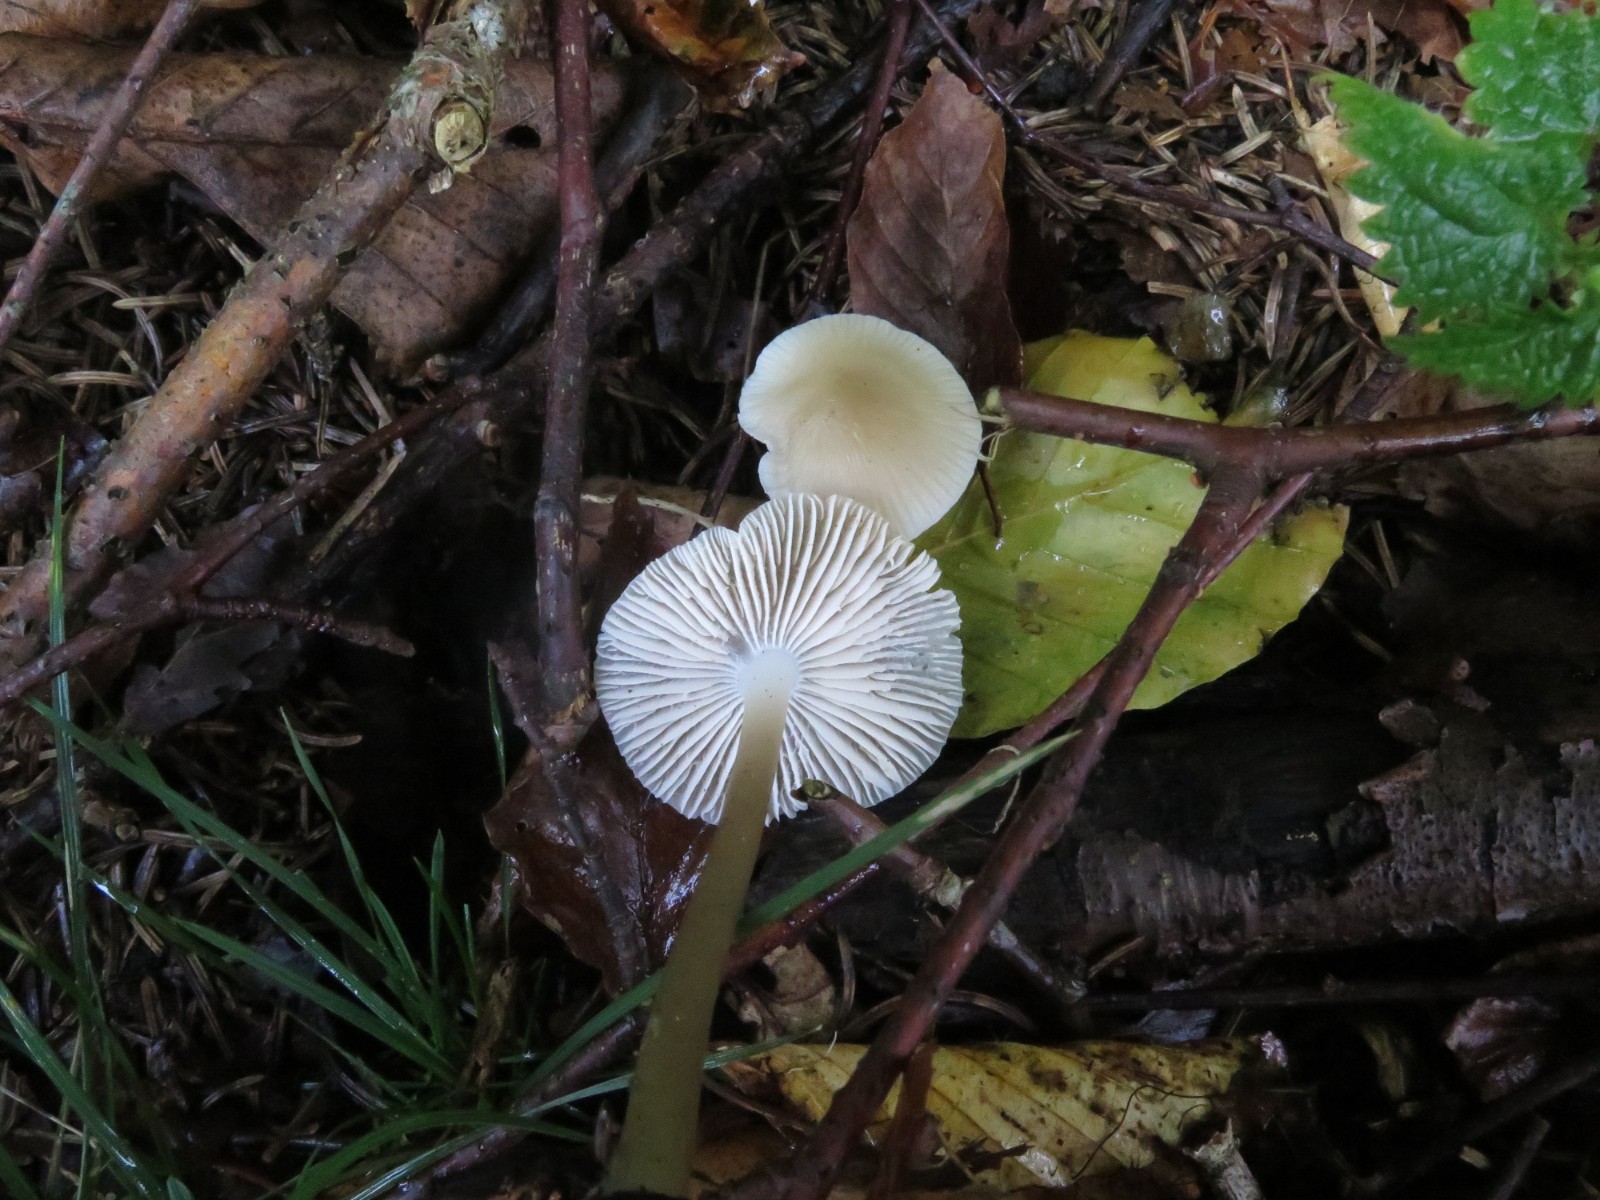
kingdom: Fungi
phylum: Basidiomycota
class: Agaricomycetes
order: Agaricales
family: Mycenaceae
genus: Mycena
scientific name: Mycena galericulata
